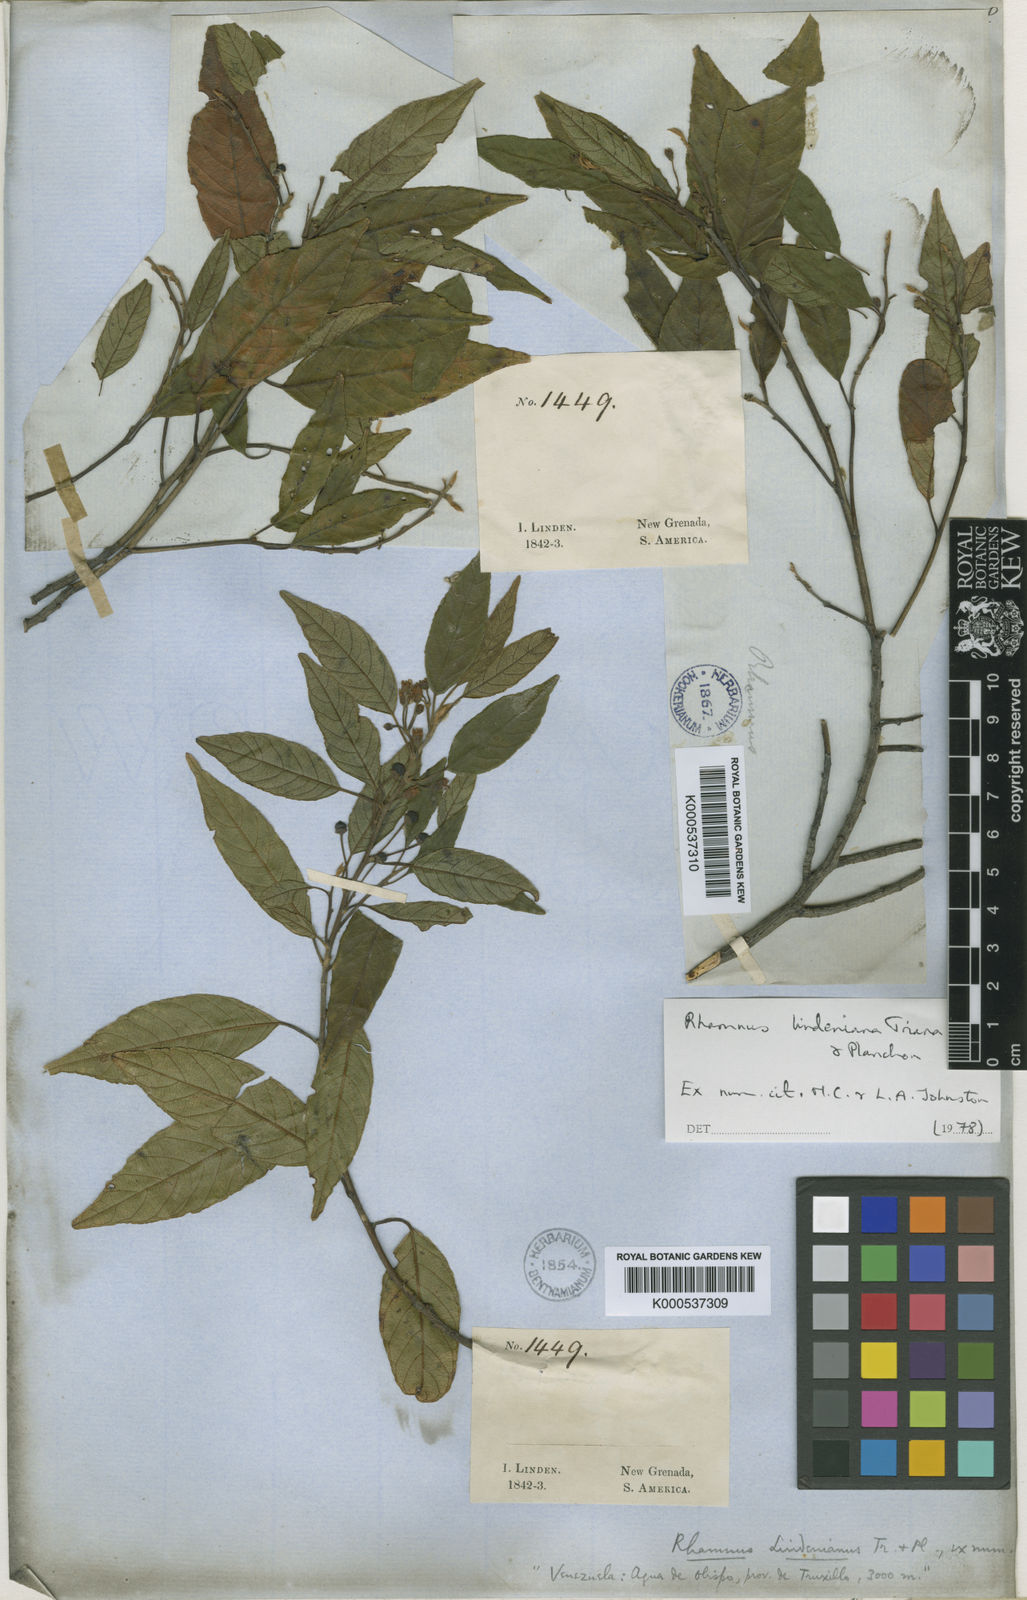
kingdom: Plantae
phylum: Tracheophyta
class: Magnoliopsida
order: Rosales
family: Rhamnaceae
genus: Frangula
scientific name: Frangula lindeniana
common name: Linden buckthorn
